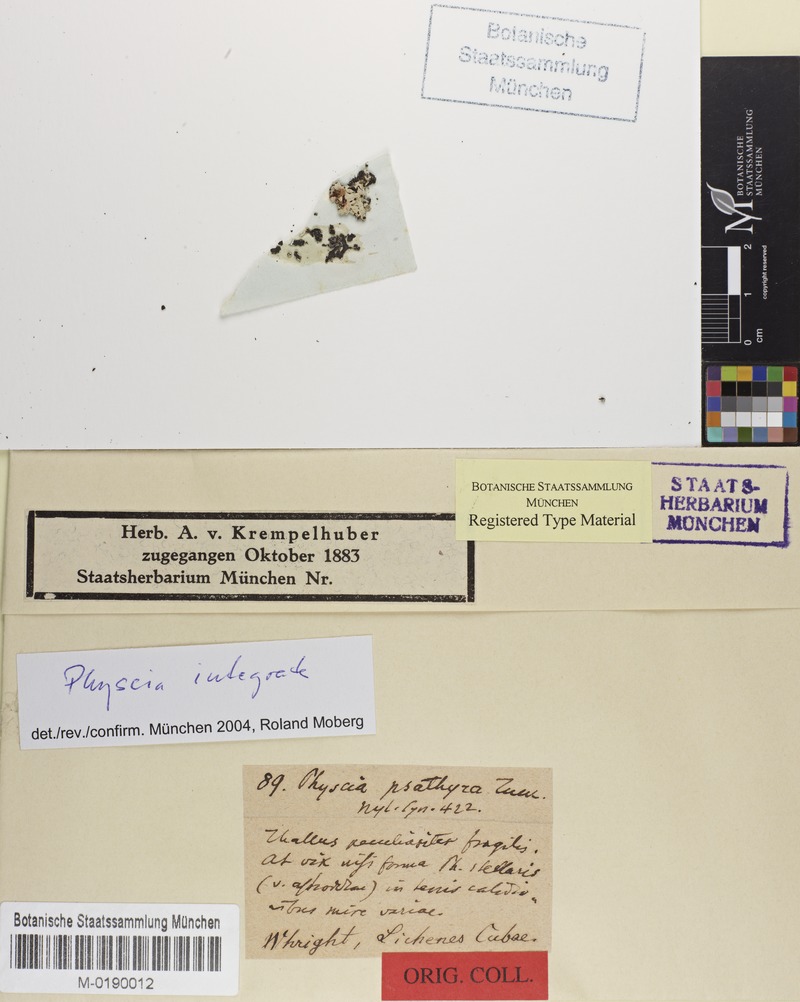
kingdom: Fungi
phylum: Ascomycota
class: Lecanoromycetes
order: Caliciales
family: Physciaceae
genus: Physcia
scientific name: Physcia integrata
